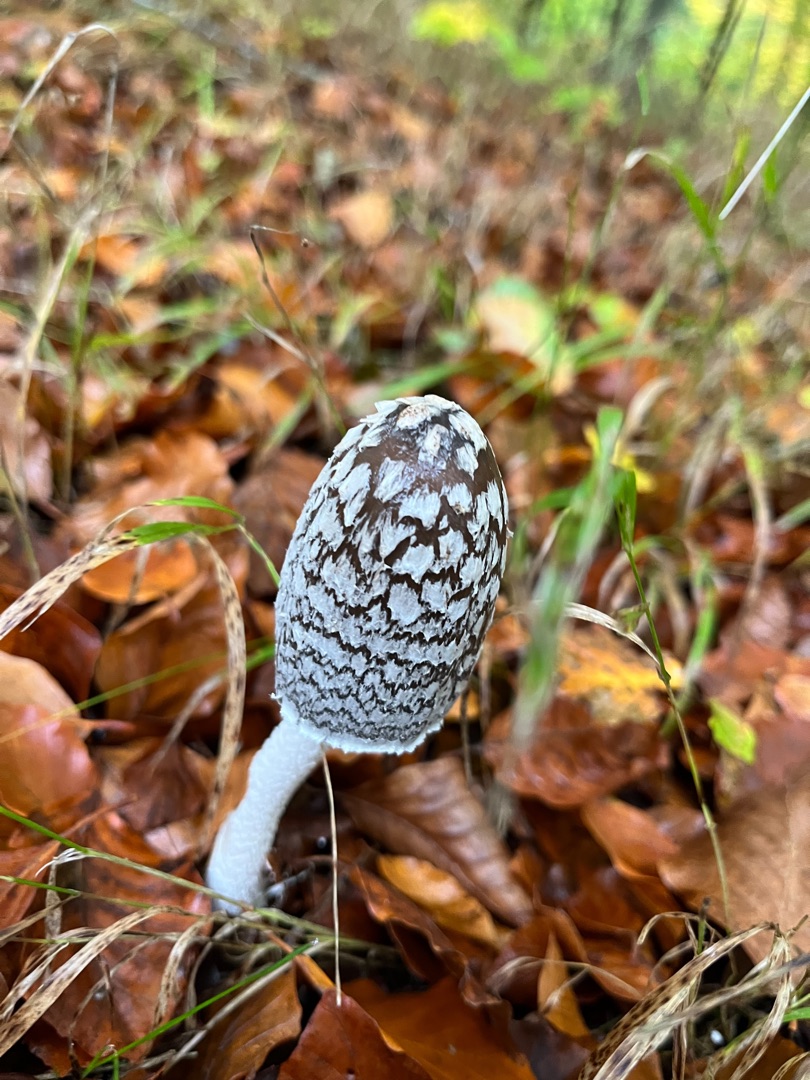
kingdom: Fungi
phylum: Basidiomycota
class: Agaricomycetes
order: Agaricales
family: Psathyrellaceae
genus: Coprinopsis
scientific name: Coprinopsis picacea
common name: Skade-blækhat
